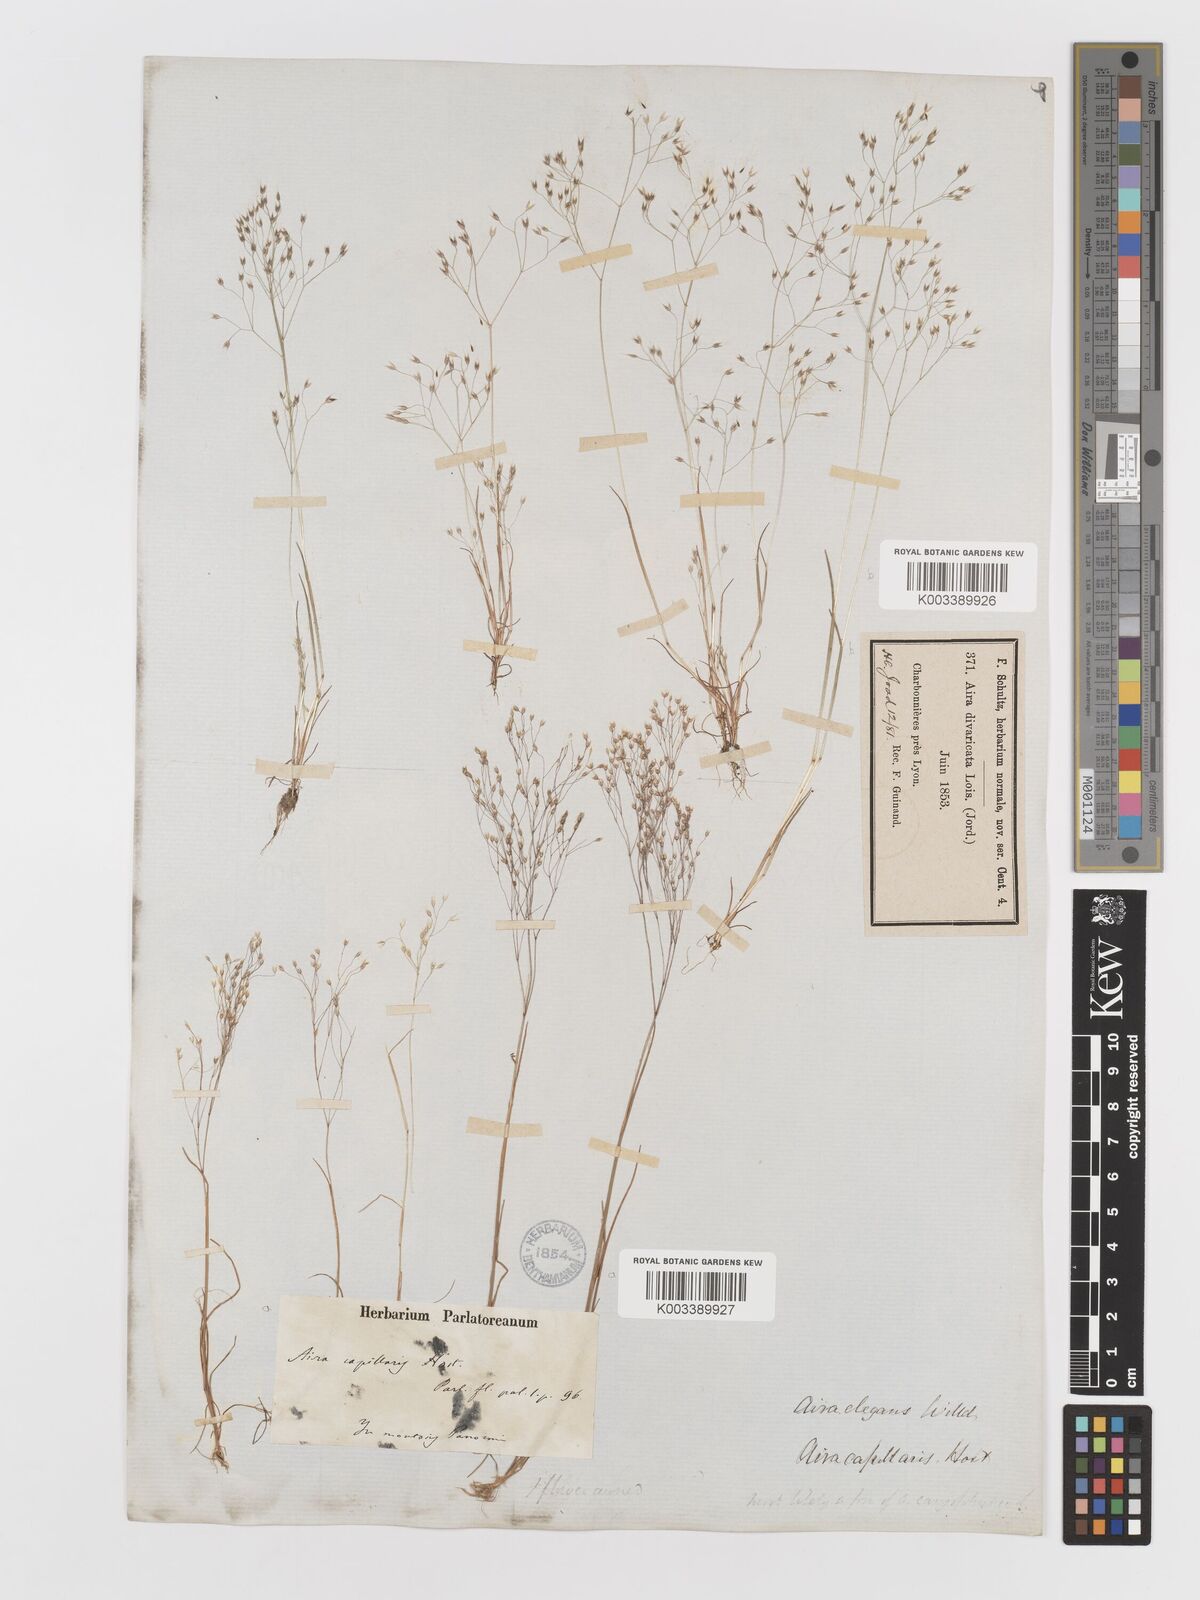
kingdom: Plantae
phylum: Tracheophyta
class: Liliopsida
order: Poales
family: Poaceae
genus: Aira
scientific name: Aira
